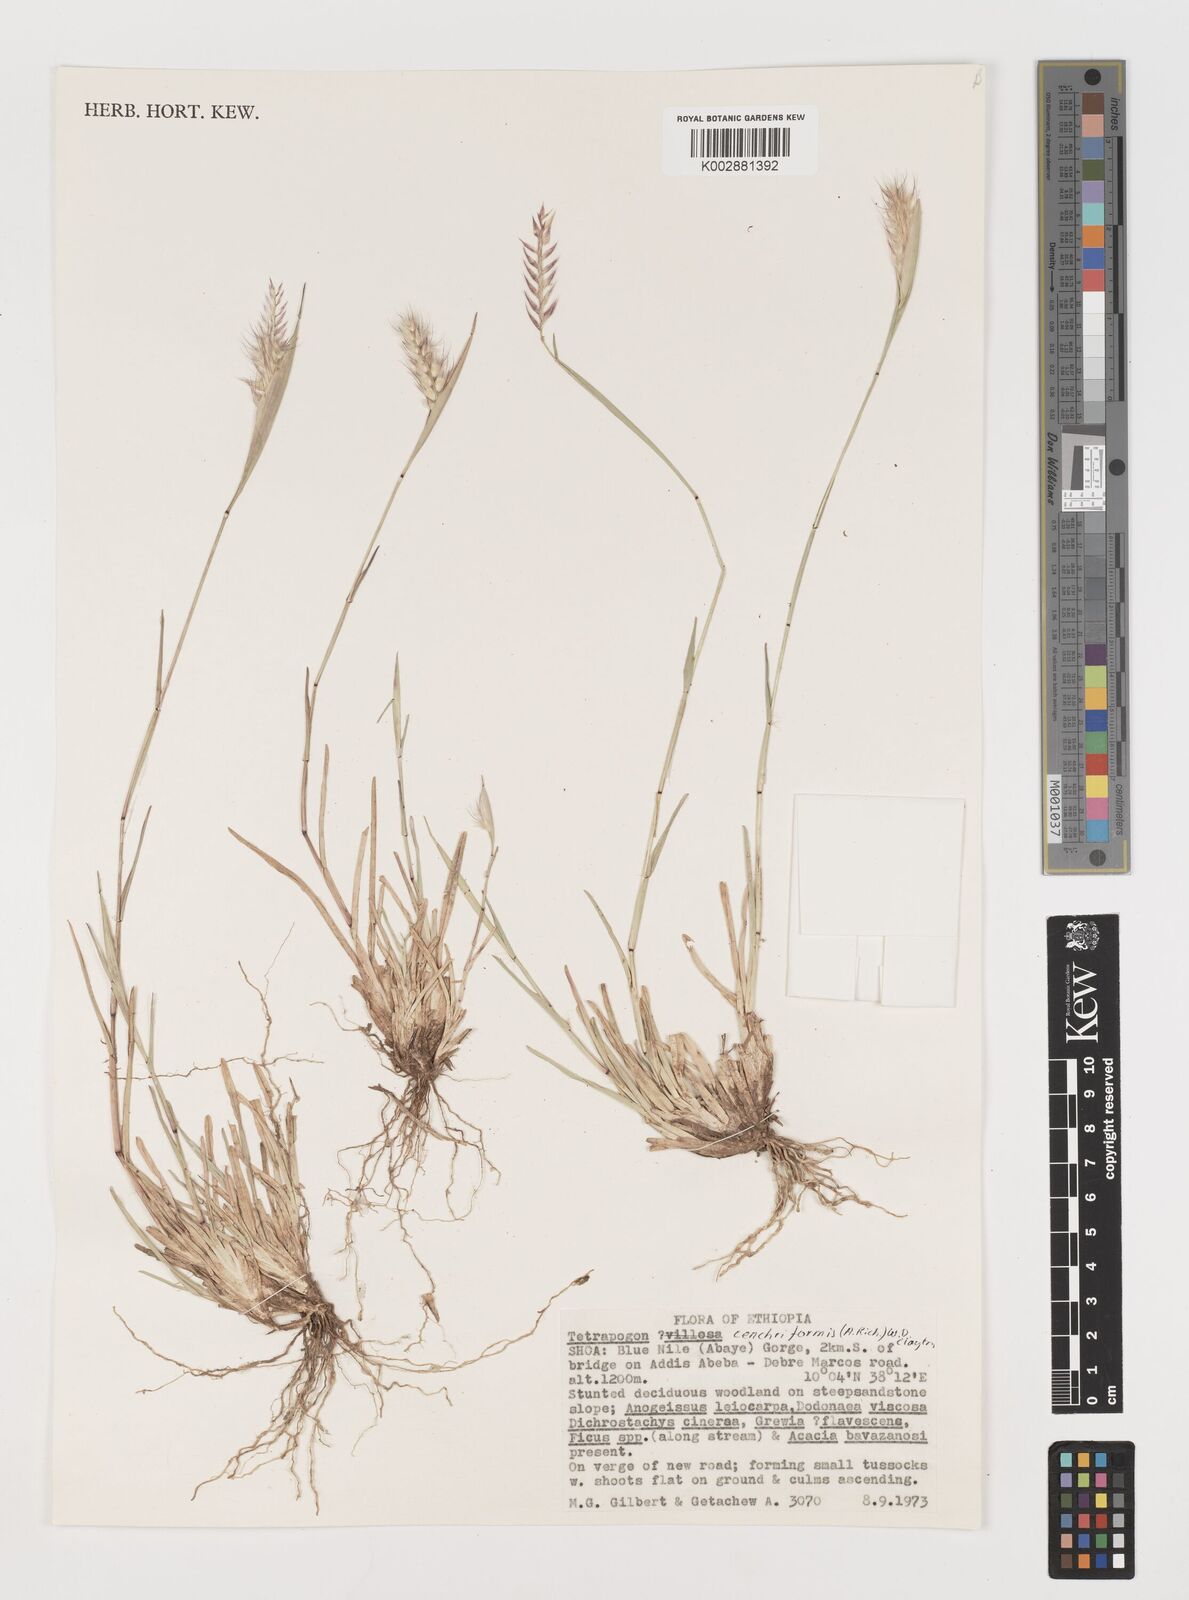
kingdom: Plantae
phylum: Tracheophyta
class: Liliopsida
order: Poales
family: Poaceae
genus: Tetrapogon
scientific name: Tetrapogon cenchriformis
